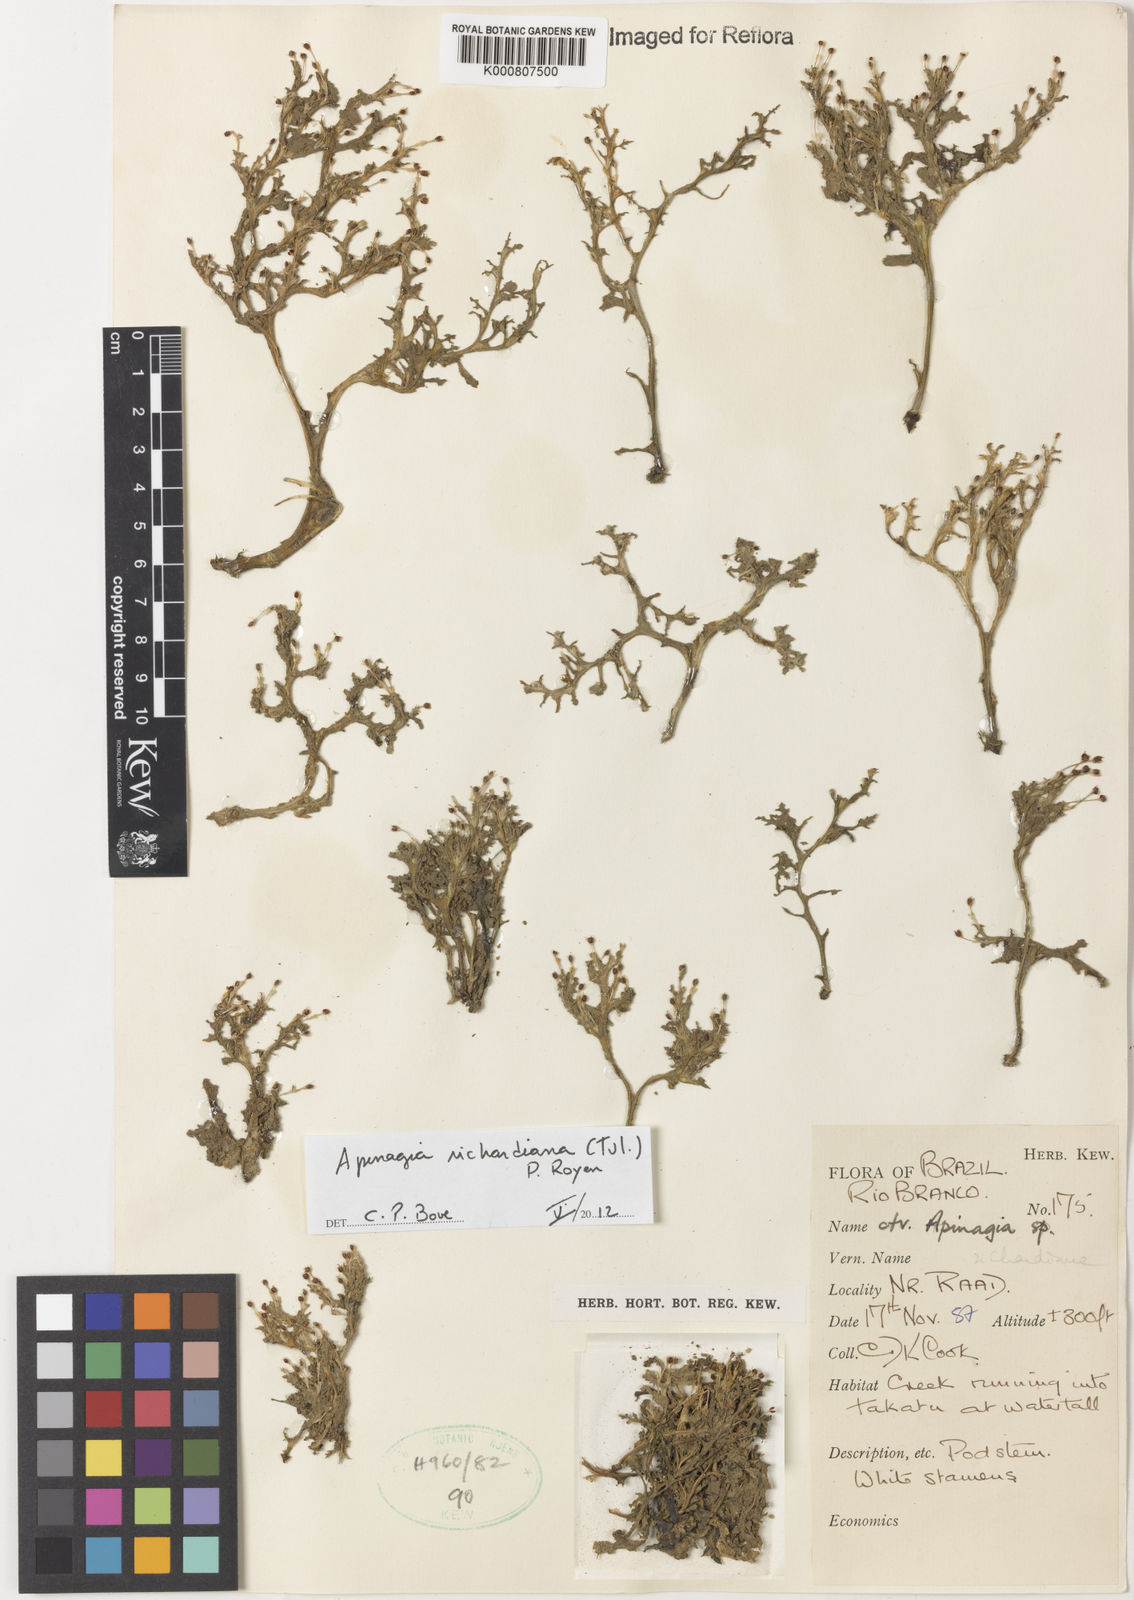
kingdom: Plantae
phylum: Tracheophyta
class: Magnoliopsida
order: Malpighiales
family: Podostemaceae
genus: Apinagia
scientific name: Apinagia richardiana
